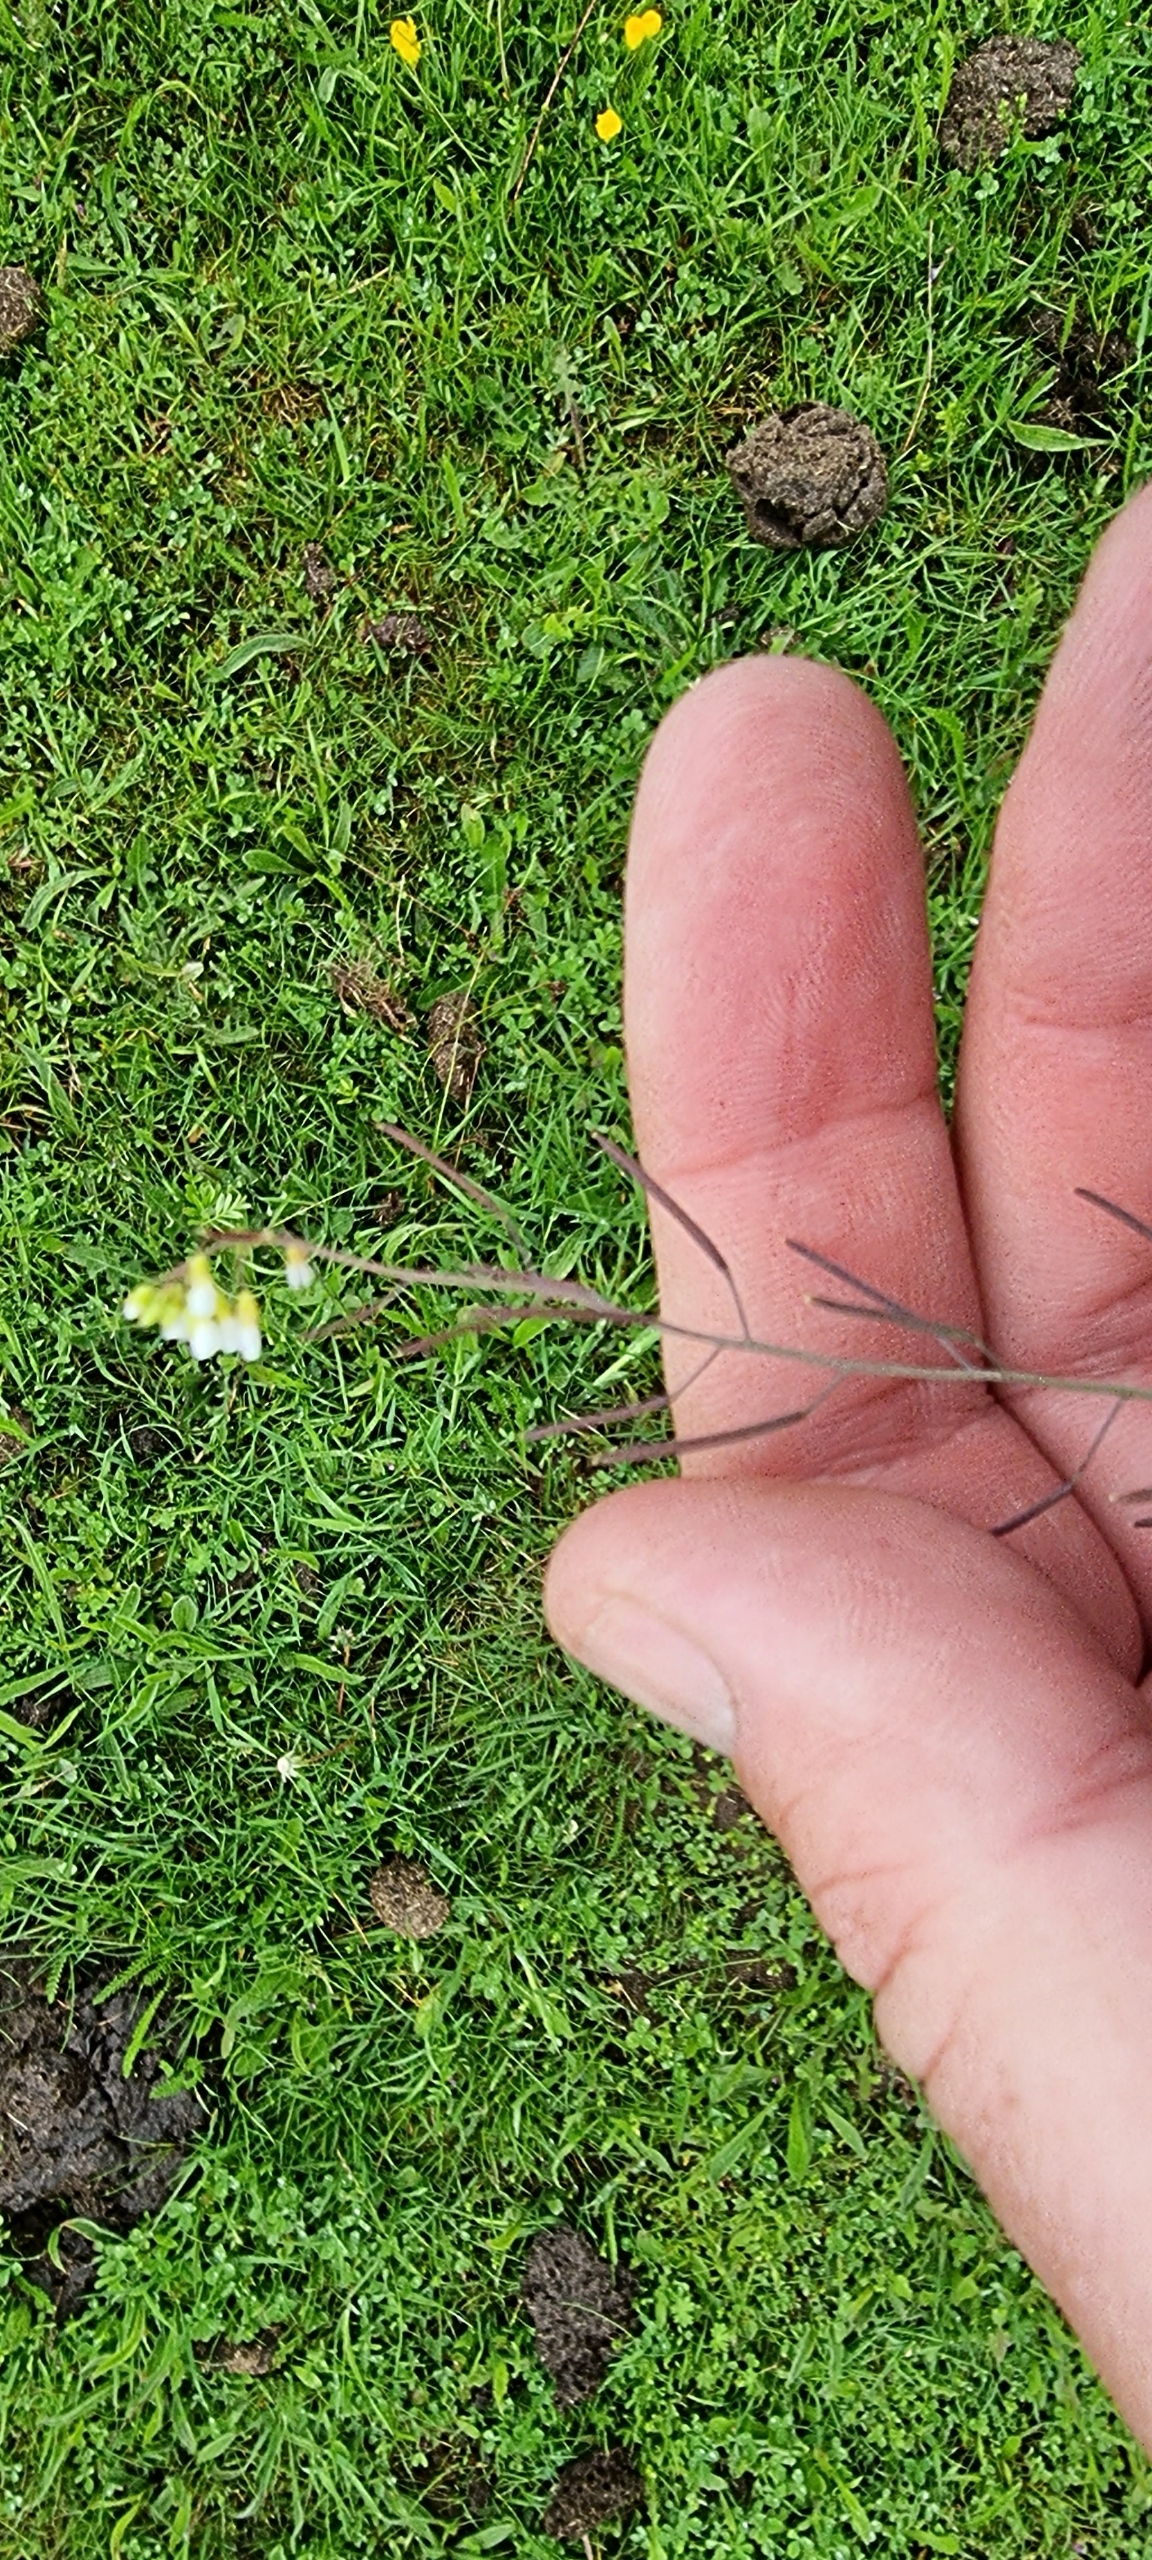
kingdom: Plantae
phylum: Tracheophyta
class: Magnoliopsida
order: Brassicales
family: Brassicaceae
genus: Arabidopsis
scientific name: Arabidopsis thaliana
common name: Almindelig gåsemad
